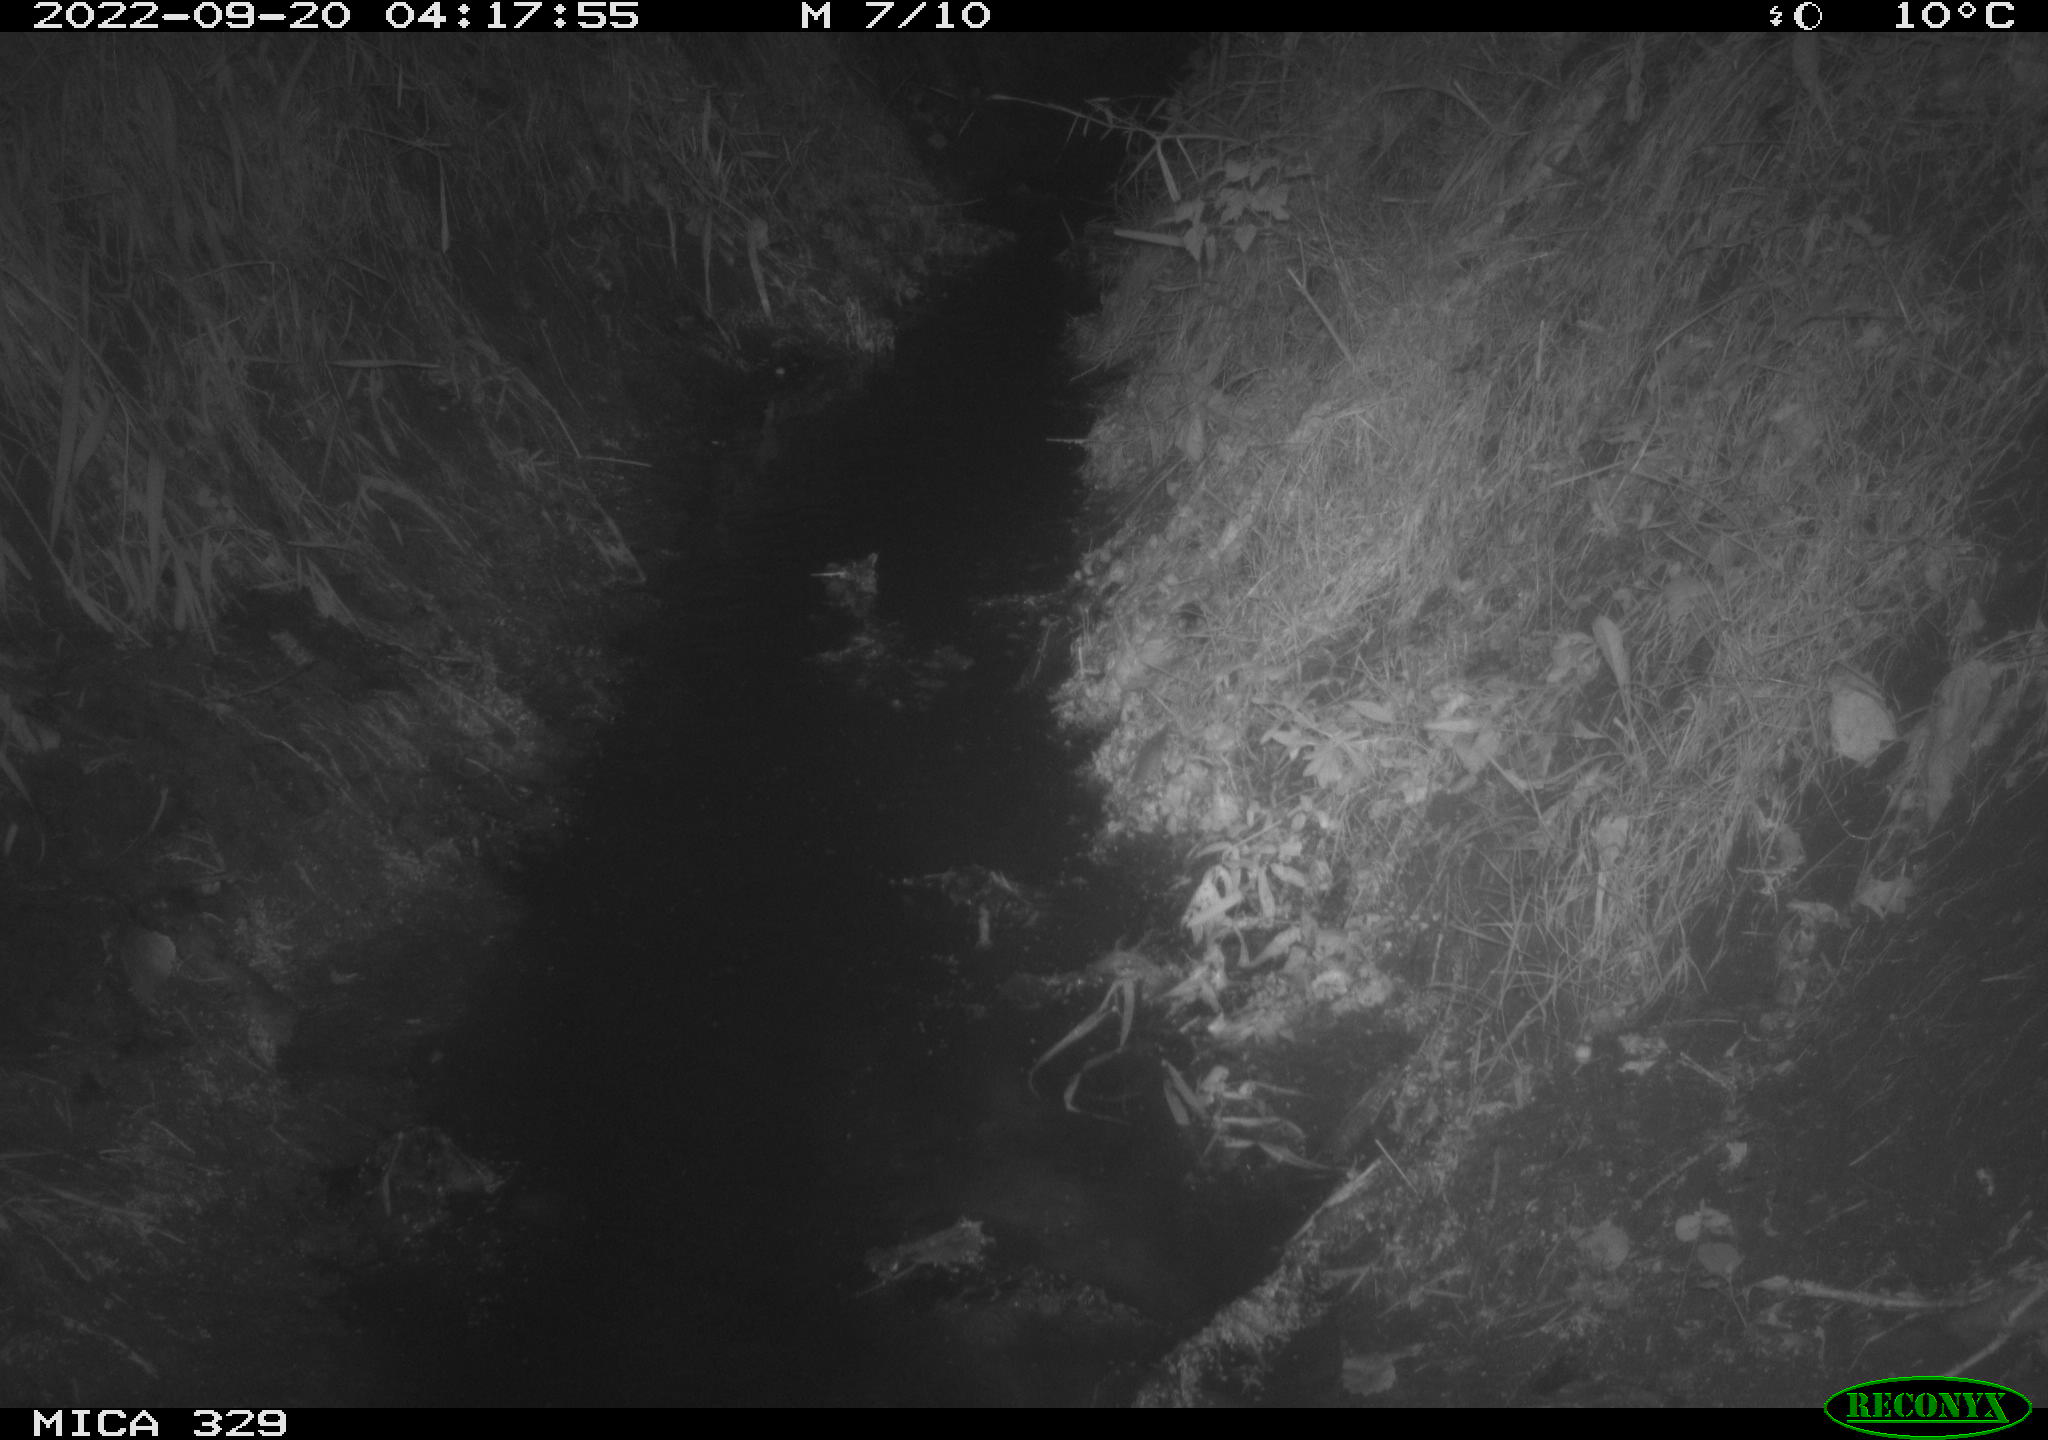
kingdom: Animalia
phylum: Chordata
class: Mammalia
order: Rodentia
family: Cricetidae
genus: Ondatra
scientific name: Ondatra zibethicus
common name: Muskrat
